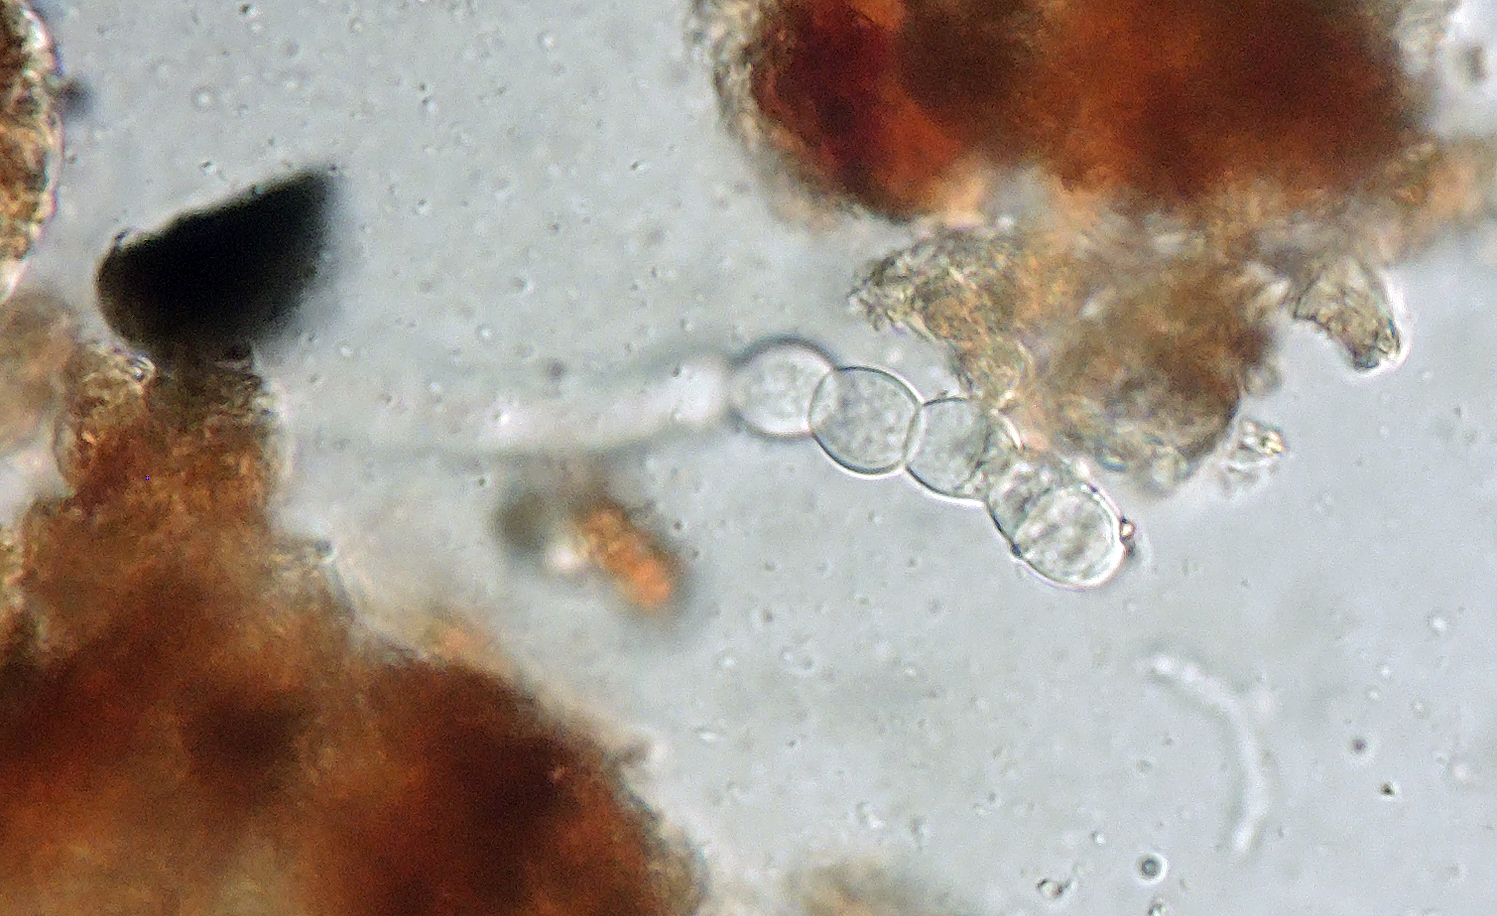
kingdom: Fungi
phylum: Ascomycota
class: Dothideomycetes
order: Mycosphaerellales
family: Mycosphaerellaceae
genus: Ramularia
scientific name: Ramularia geranii
